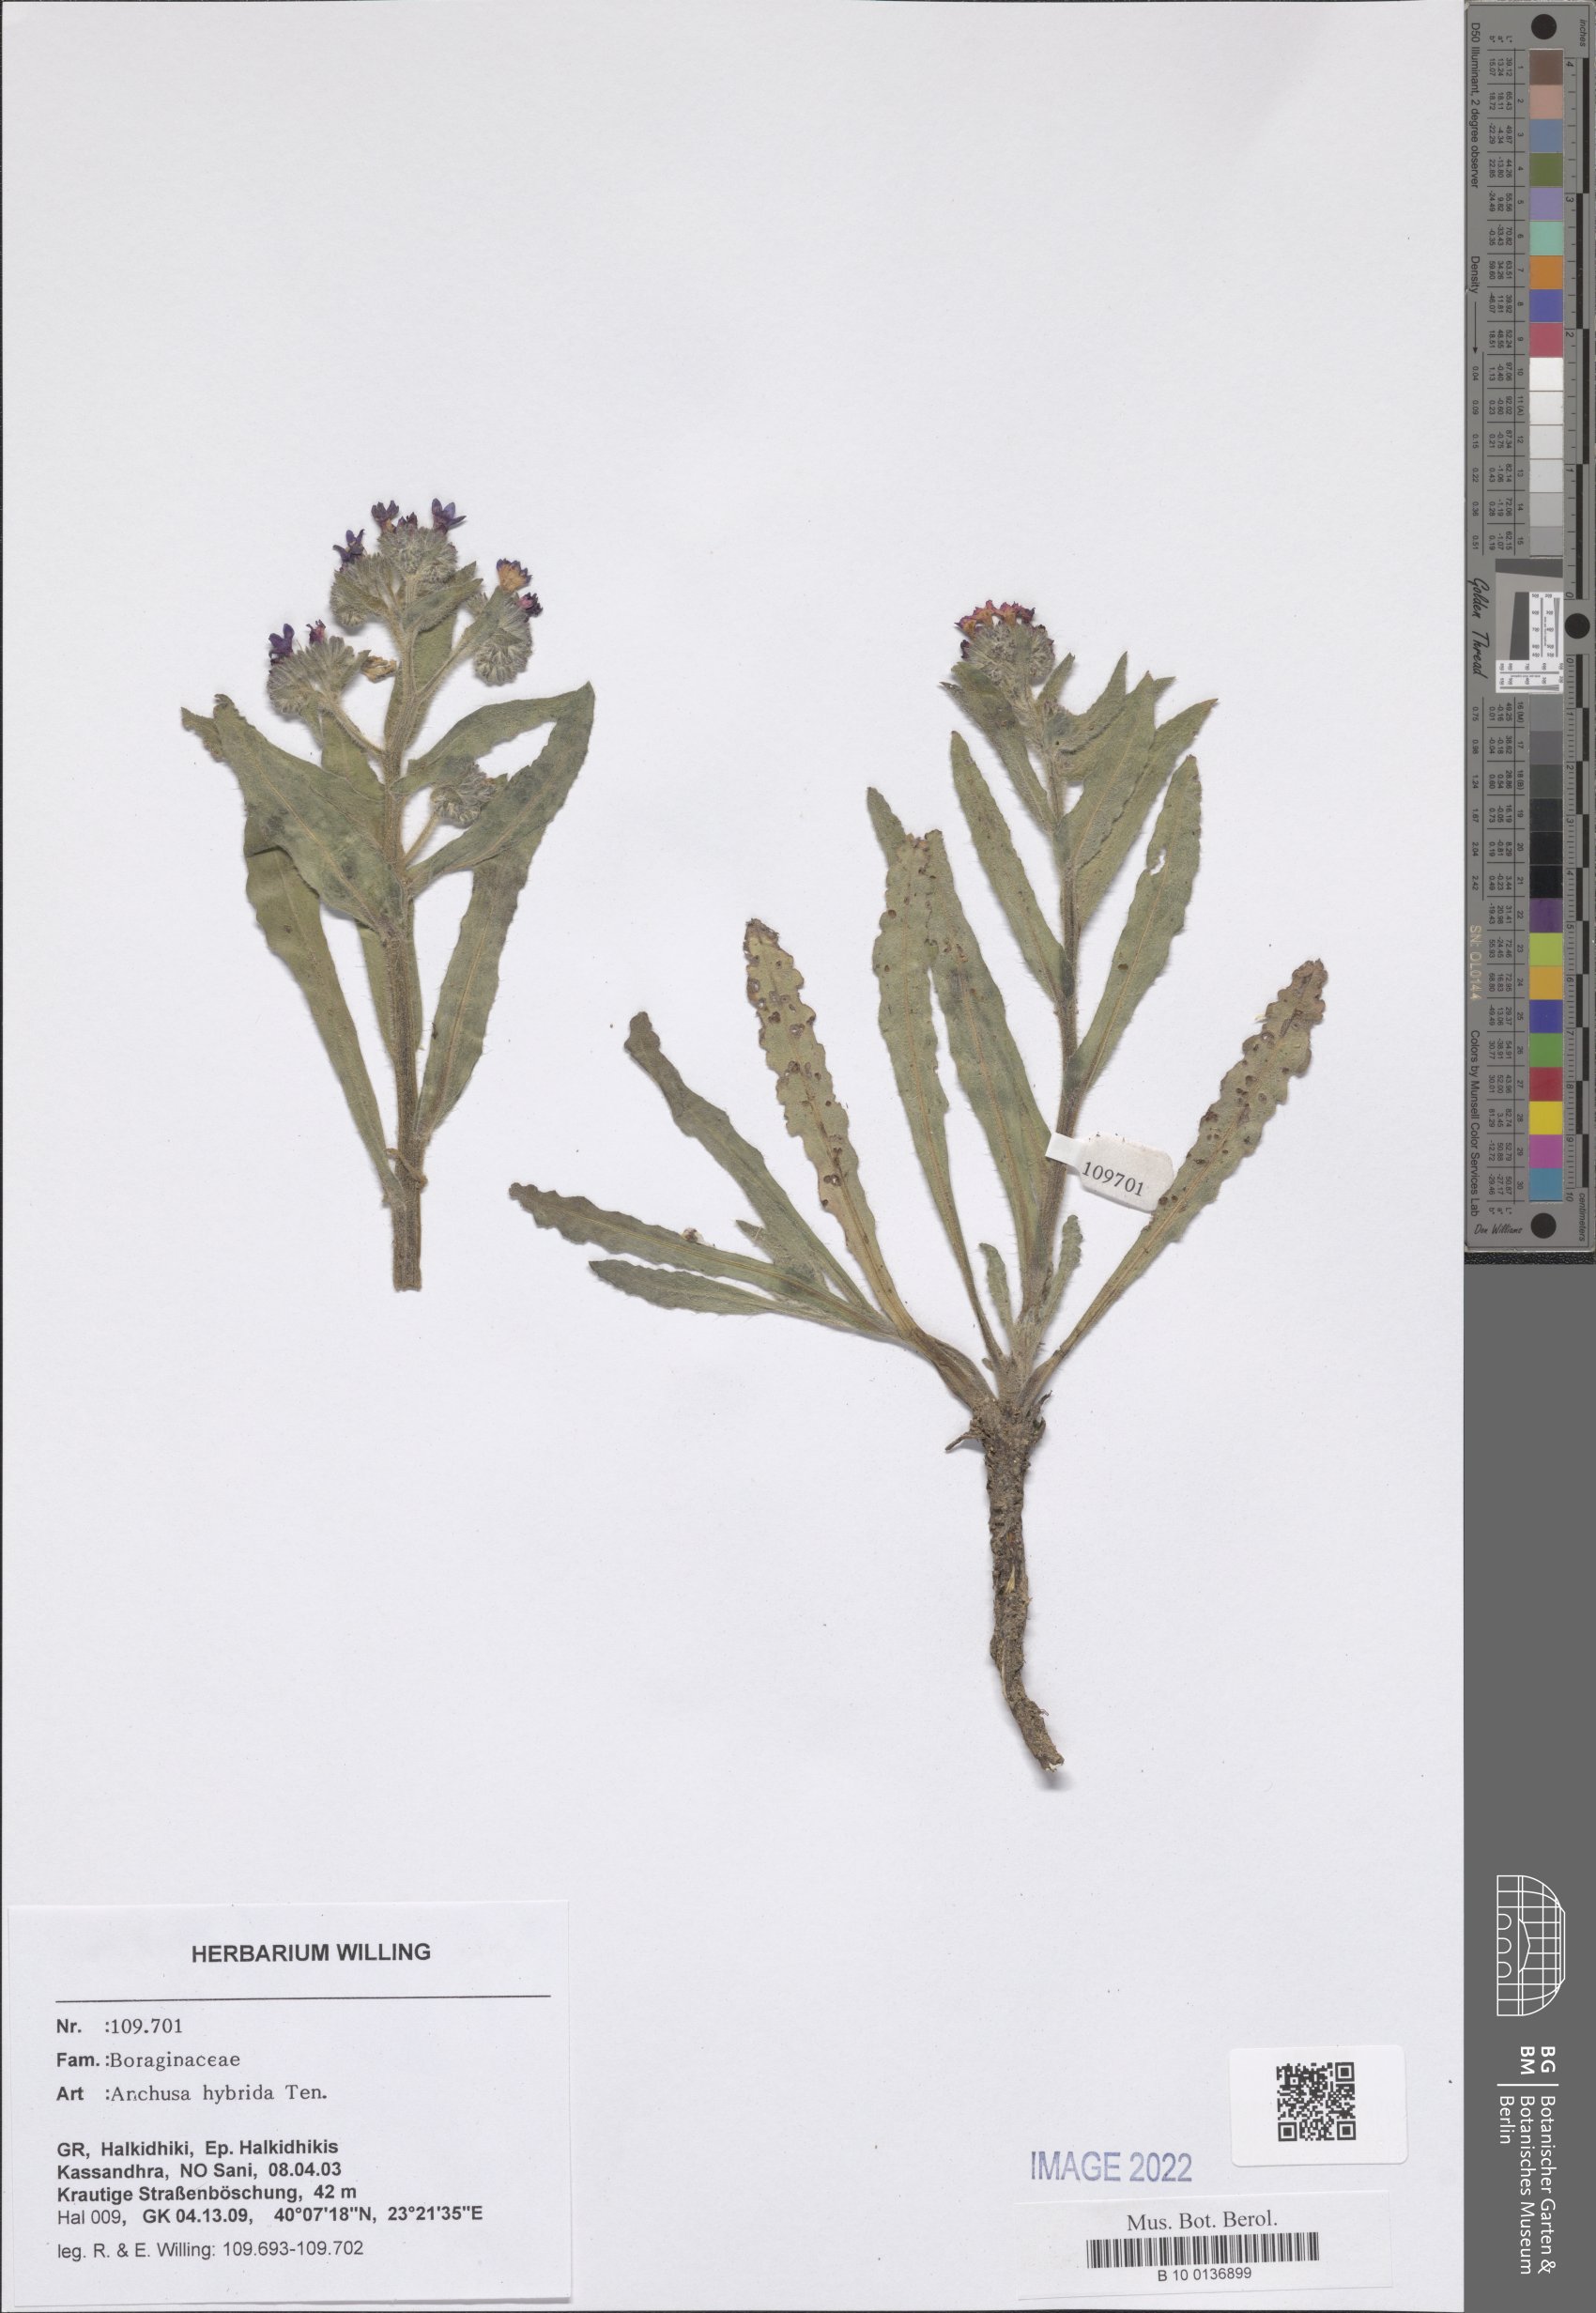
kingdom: Plantae
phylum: Tracheophyta
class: Magnoliopsida
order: Boraginales
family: Boraginaceae
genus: Anchusa
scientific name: Anchusa hybrida
